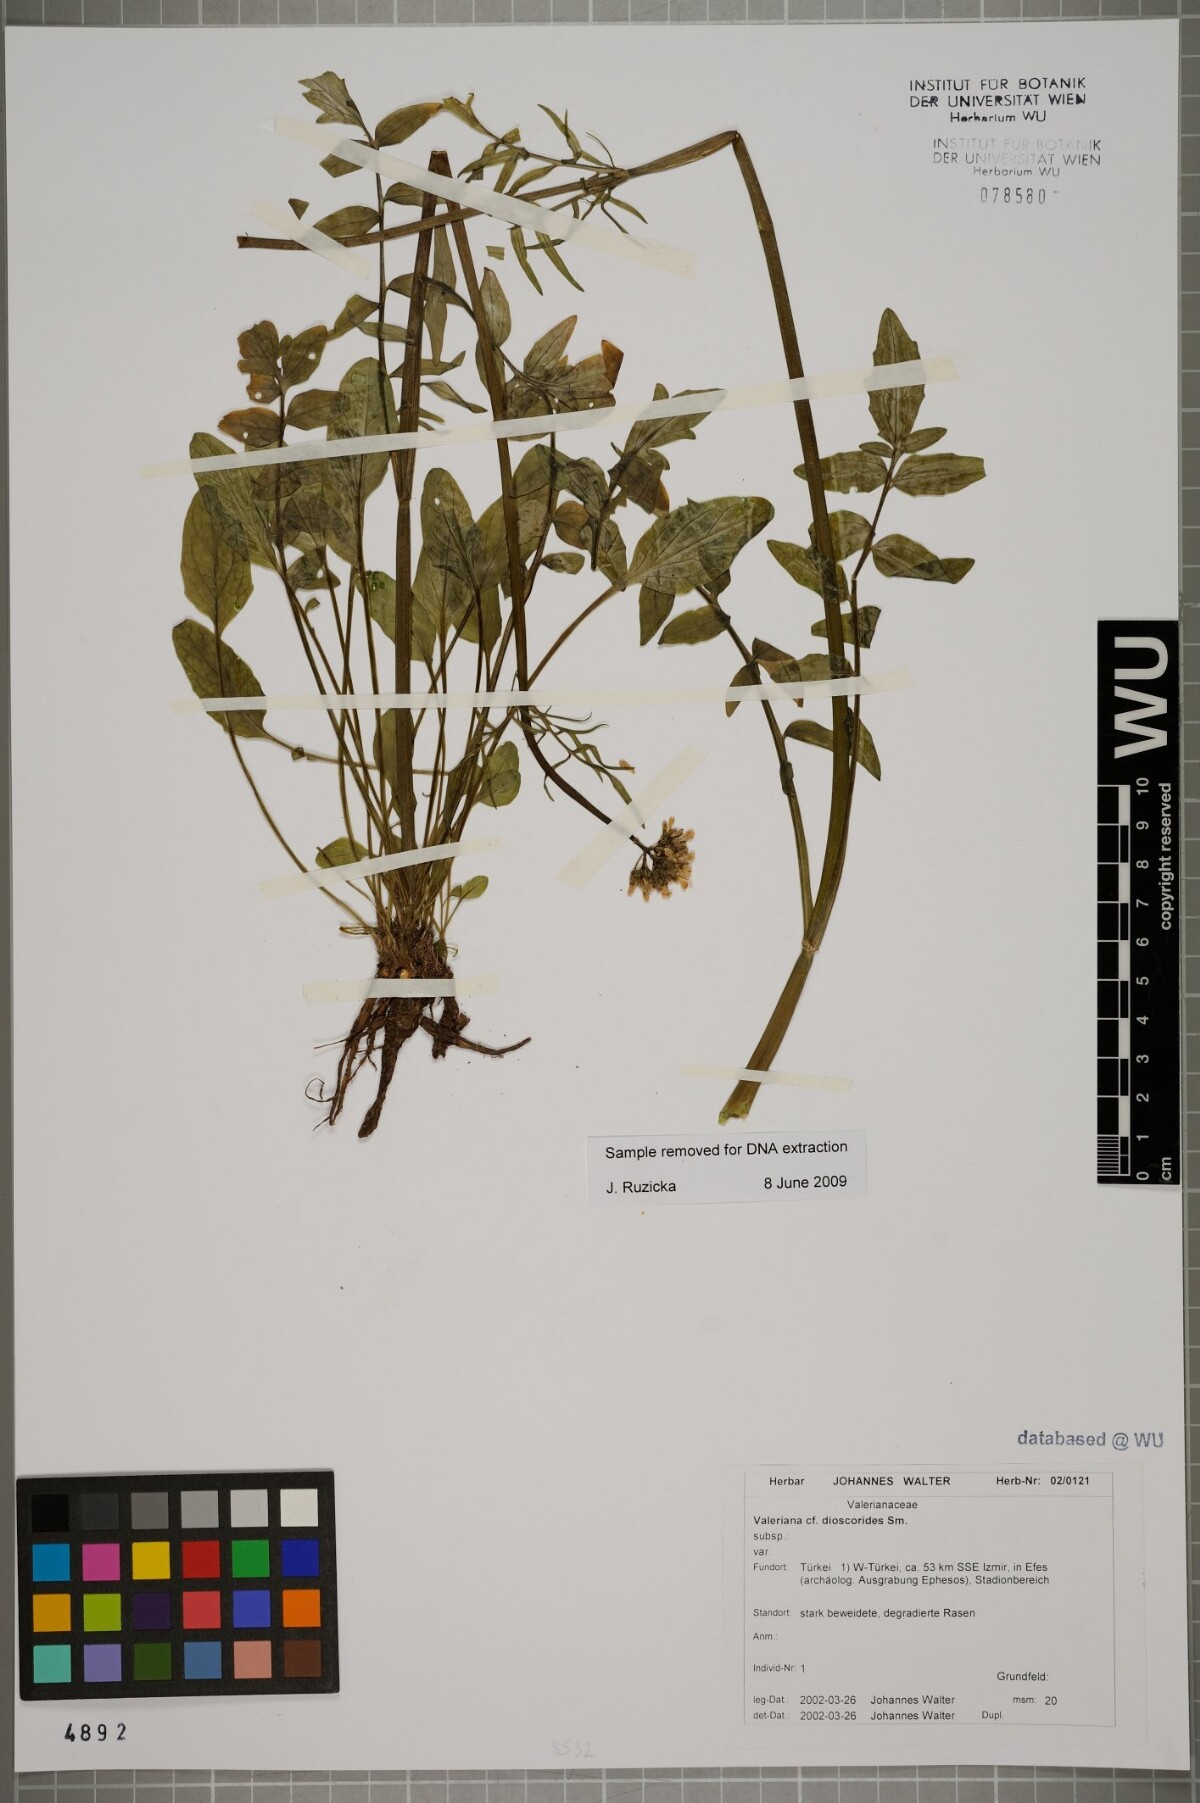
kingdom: Plantae
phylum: Tracheophyta
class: Magnoliopsida
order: Dipsacales
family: Caprifoliaceae
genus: Valeriana
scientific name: Valeriana dioscoridis
